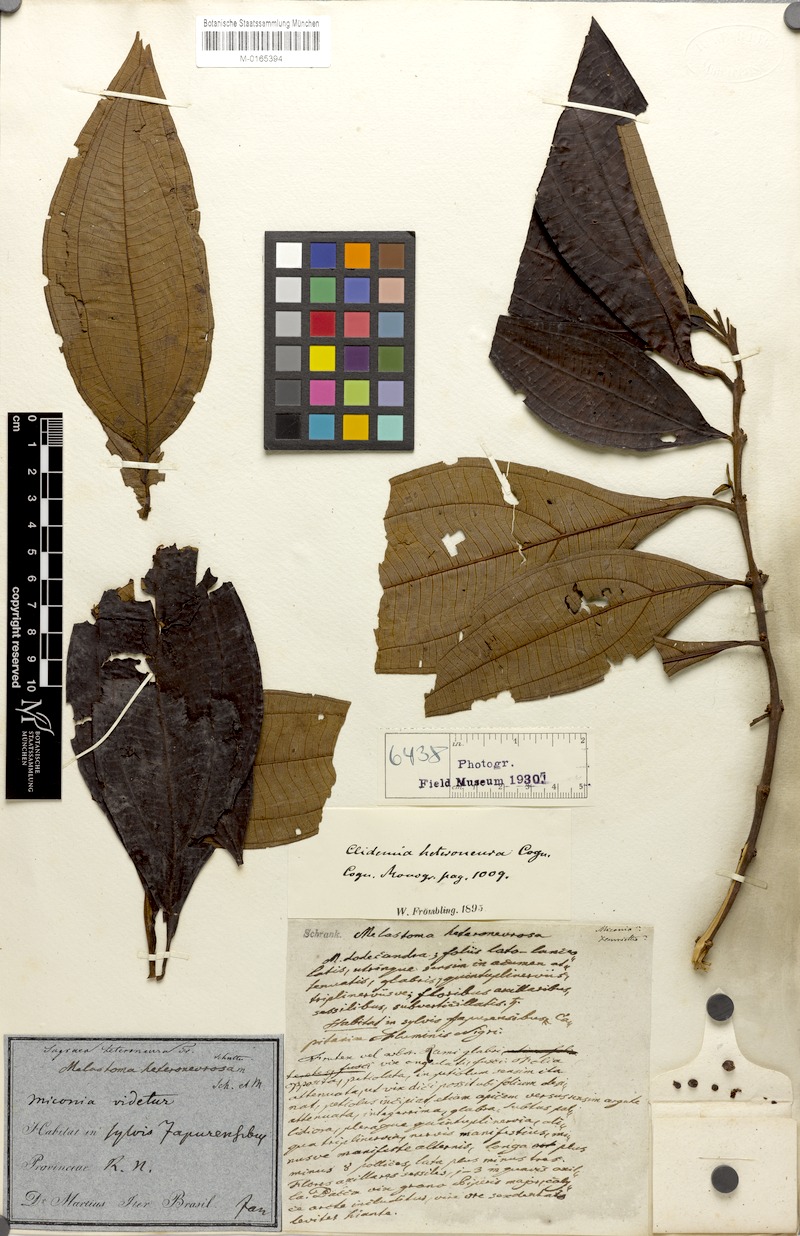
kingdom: Plantae
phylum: Tracheophyta
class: Magnoliopsida
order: Myrtales
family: Melastomataceae
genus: Miconia
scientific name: Miconia heteroneura
